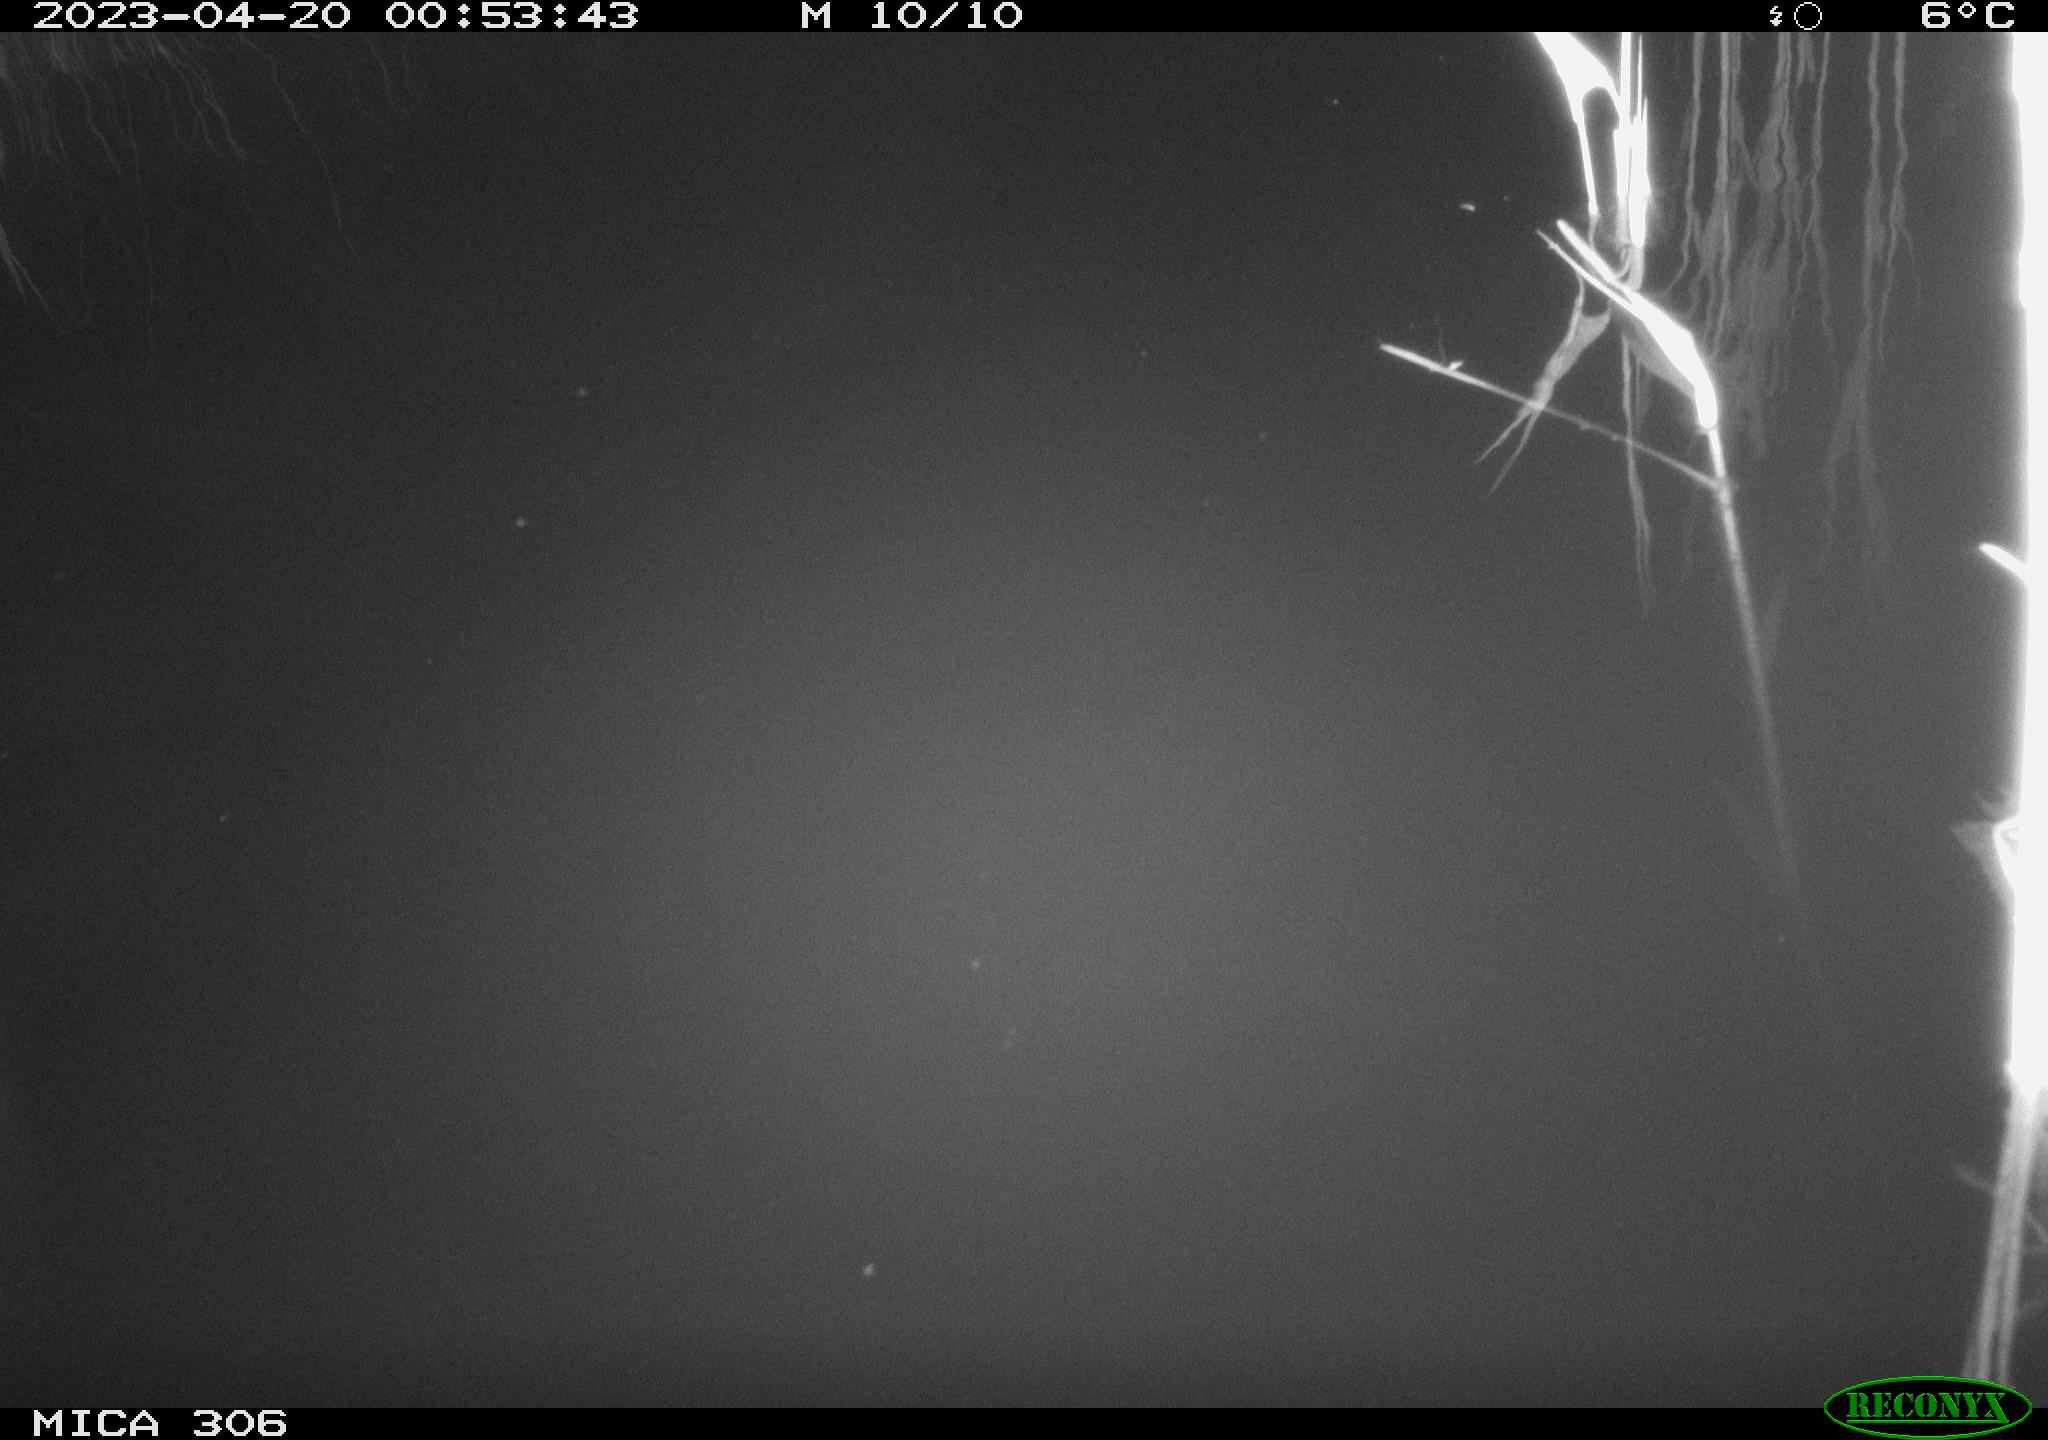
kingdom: Animalia
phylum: Chordata
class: Aves
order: Anseriformes
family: Anatidae
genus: Anas
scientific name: Anas
